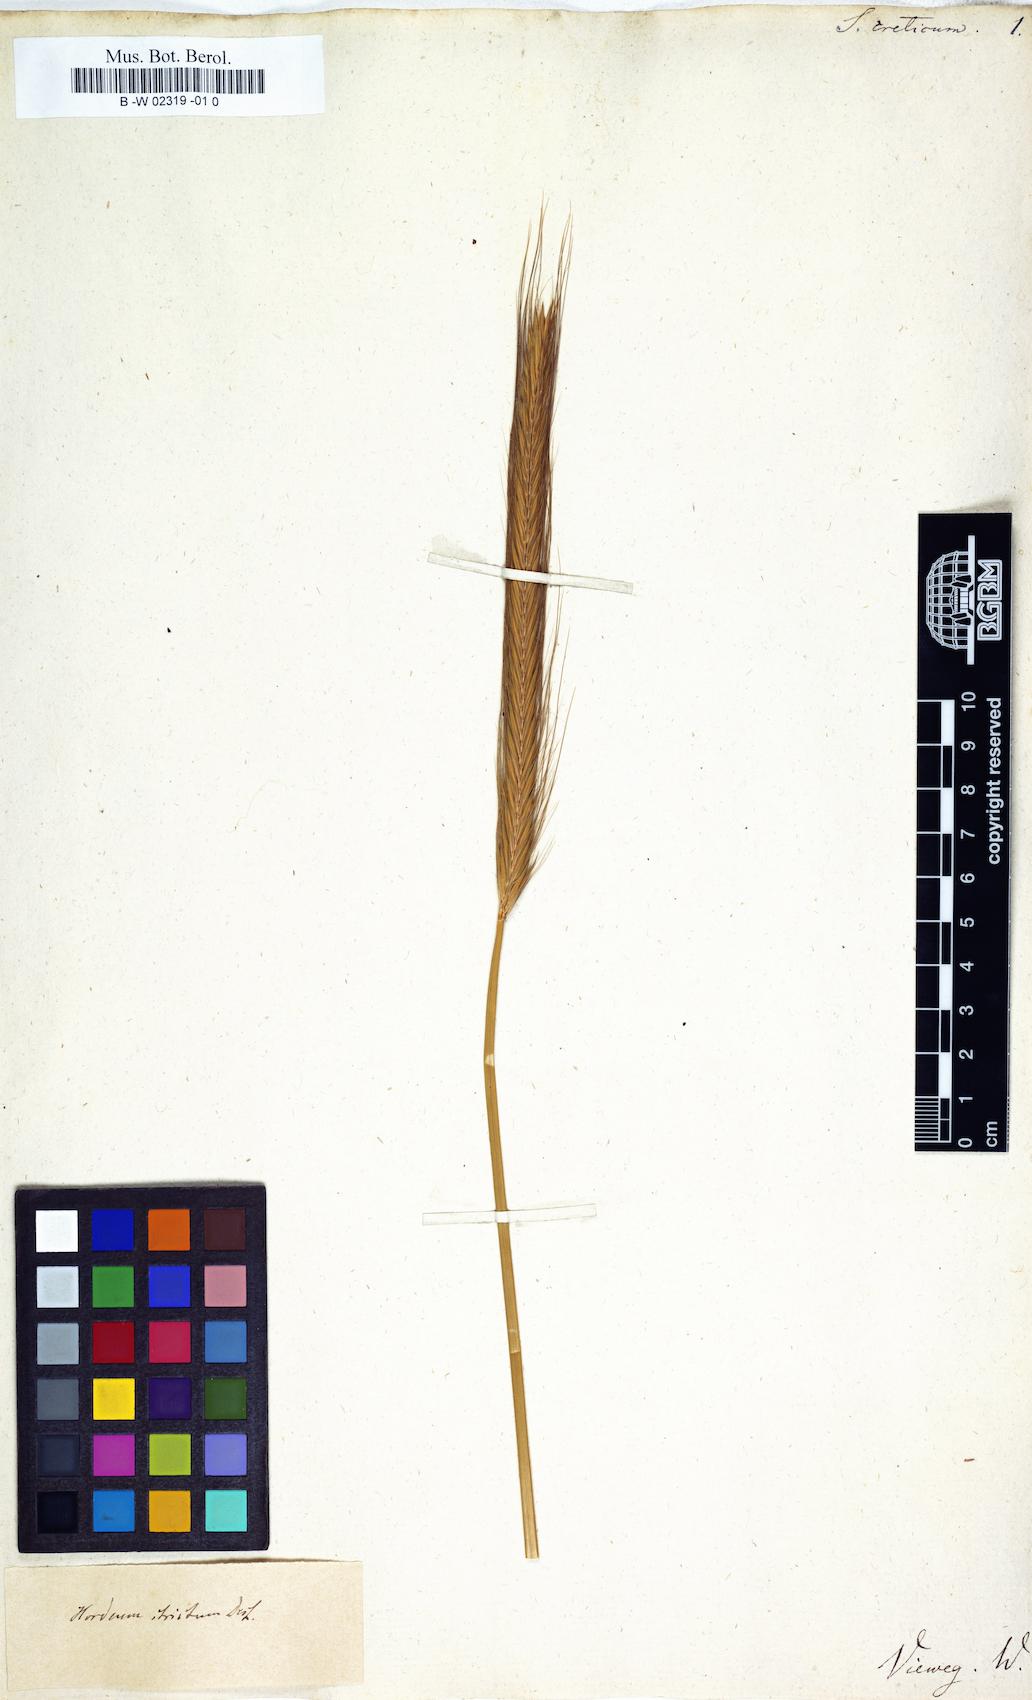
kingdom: Plantae
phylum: Tracheophyta
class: Liliopsida
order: Poales
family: Poaceae
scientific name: Poaceae
